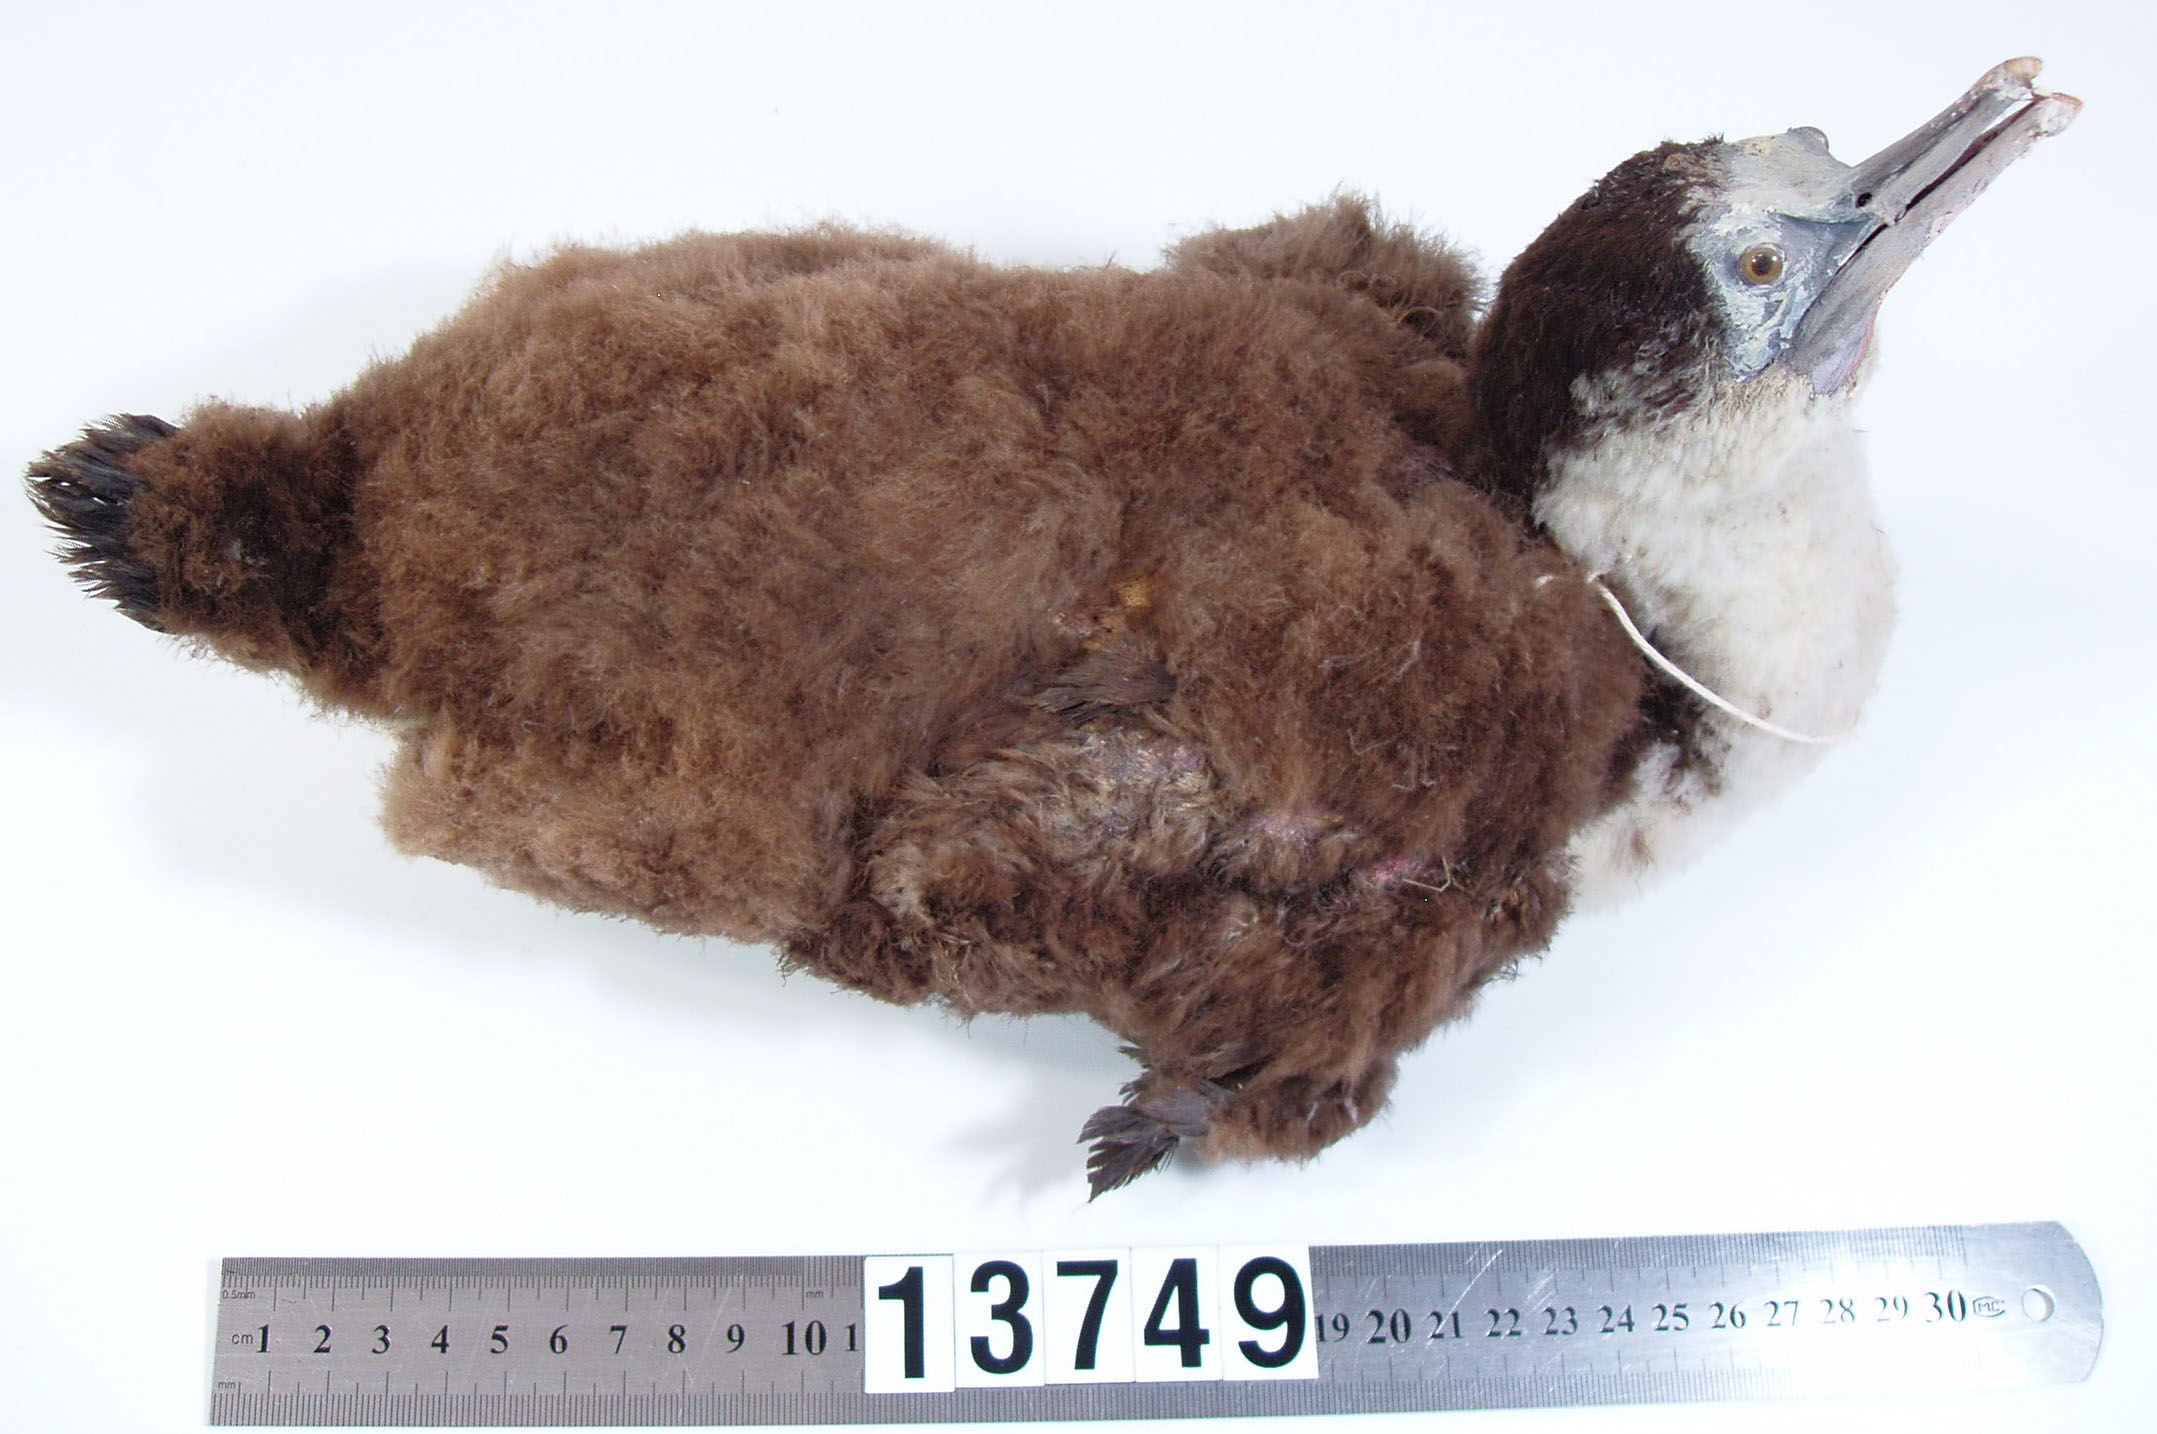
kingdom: Animalia
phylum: Chordata
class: Aves
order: Suliformes
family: Phalacrocoracidae
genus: Phalacrocorax
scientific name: Phalacrocorax varius
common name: Pied cormorant
